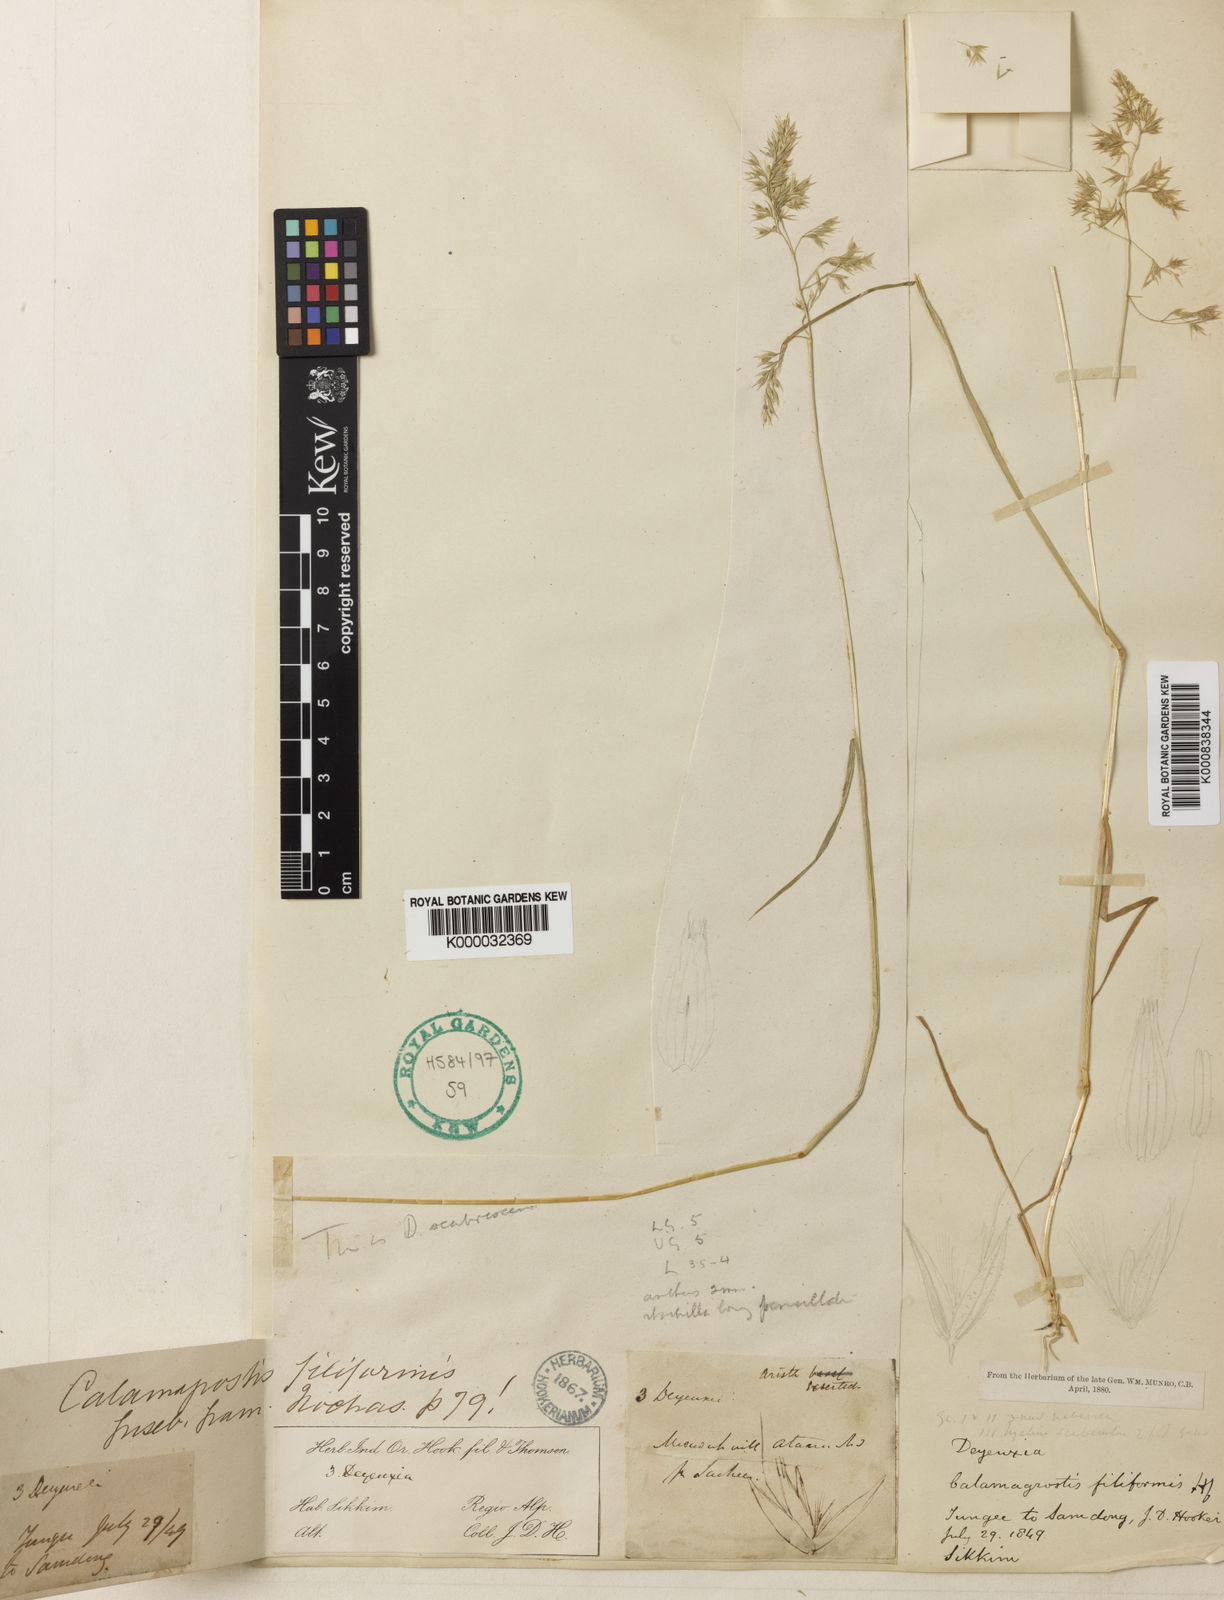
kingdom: Plantae
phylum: Tracheophyta
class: Liliopsida
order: Poales
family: Poaceae
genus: Calamagrostis
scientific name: Calamagrostis scabrescens
